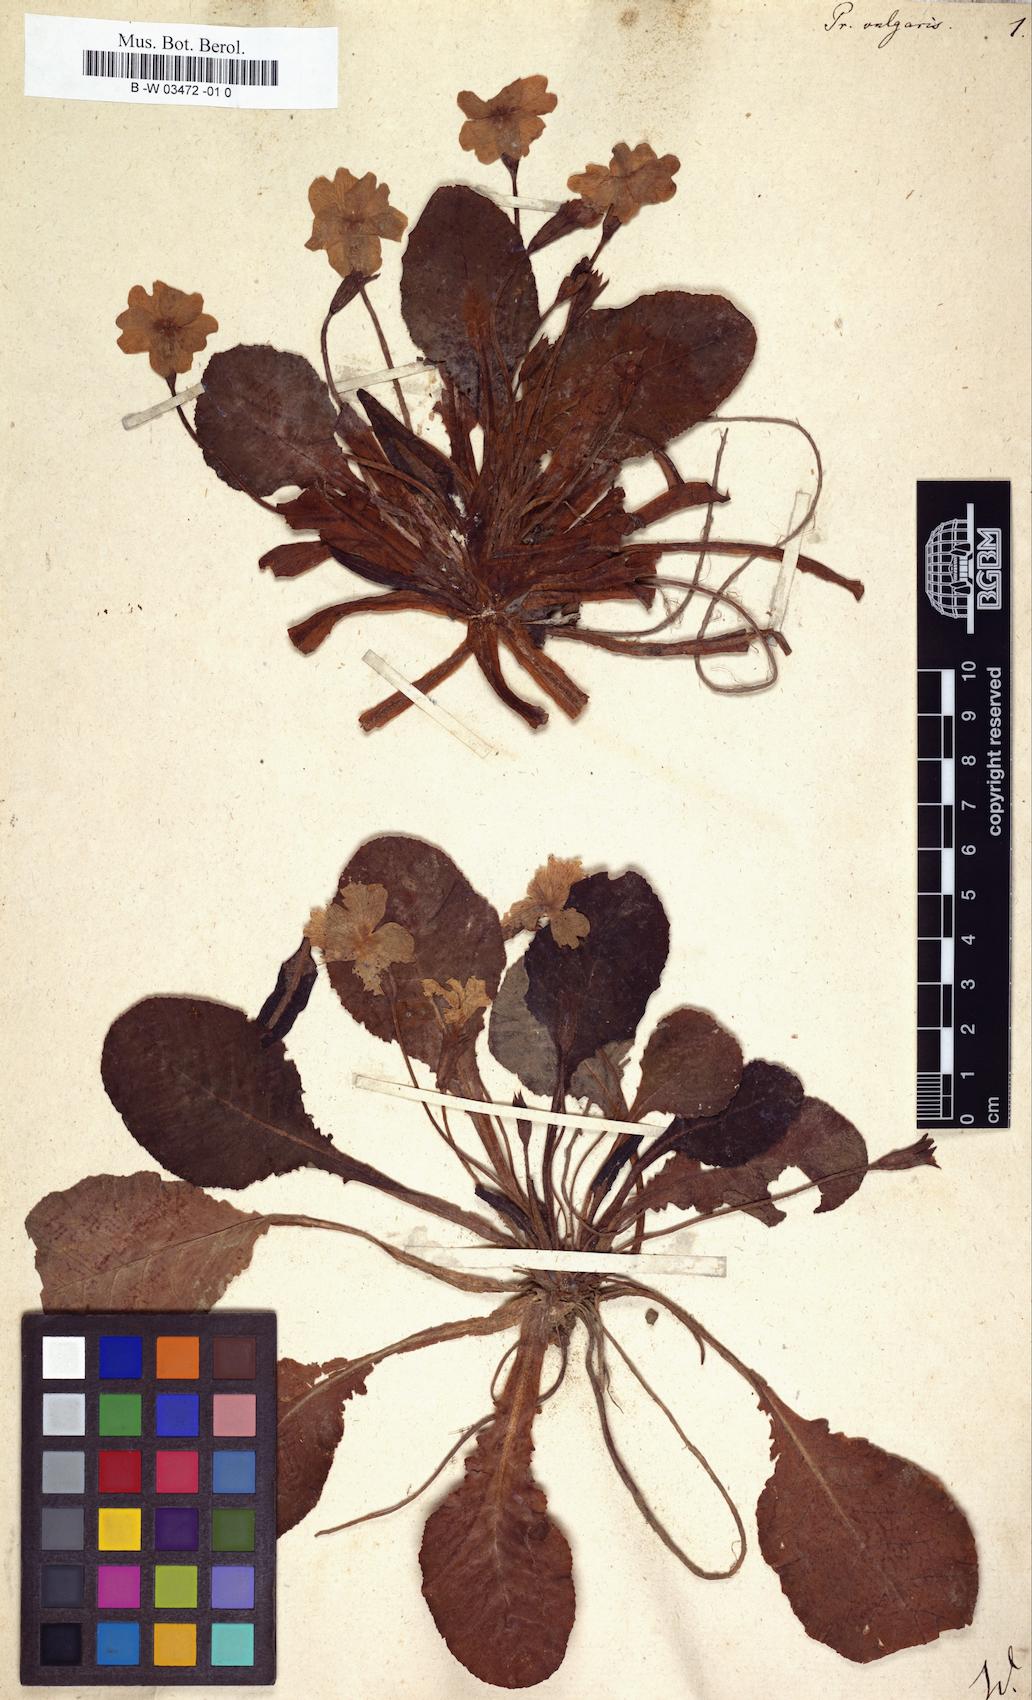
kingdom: Plantae
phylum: Tracheophyta
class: Magnoliopsida
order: Ericales
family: Primulaceae
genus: Primula
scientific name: Primula vulgaris
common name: Primrose
